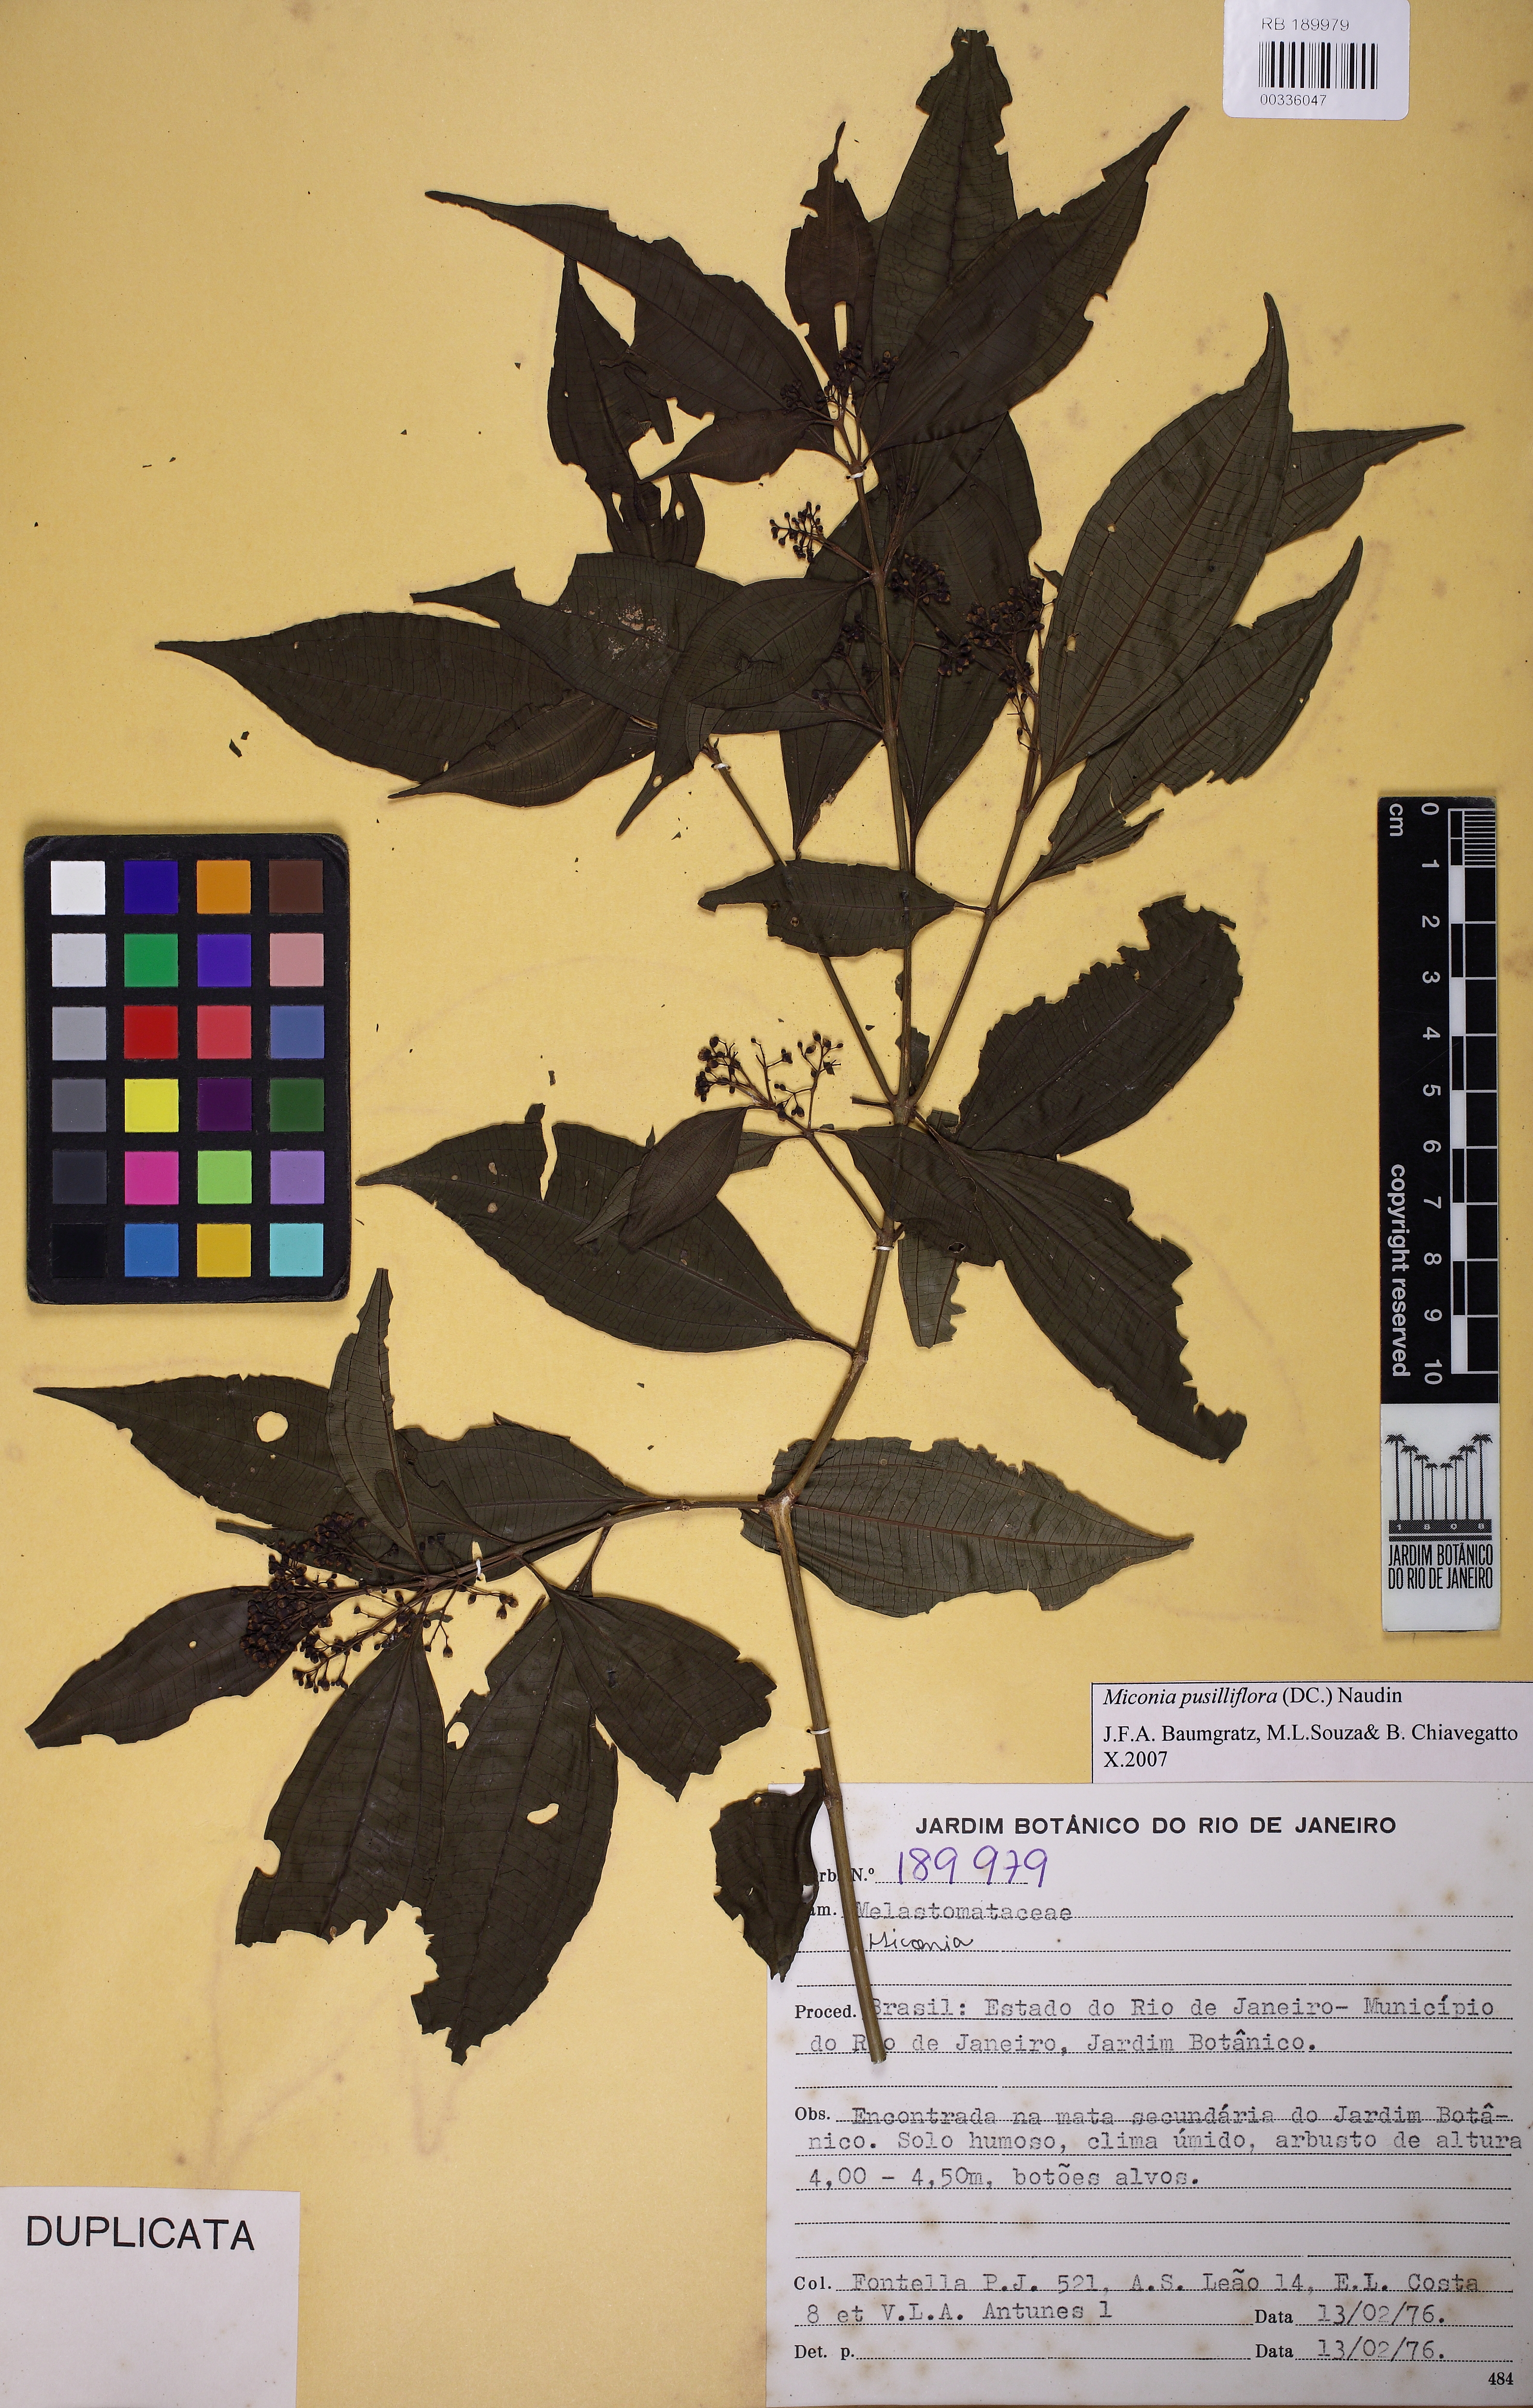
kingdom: Plantae
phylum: Tracheophyta
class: Magnoliopsida
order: Myrtales
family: Melastomataceae
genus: Miconia
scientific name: Miconia pusilliflora
